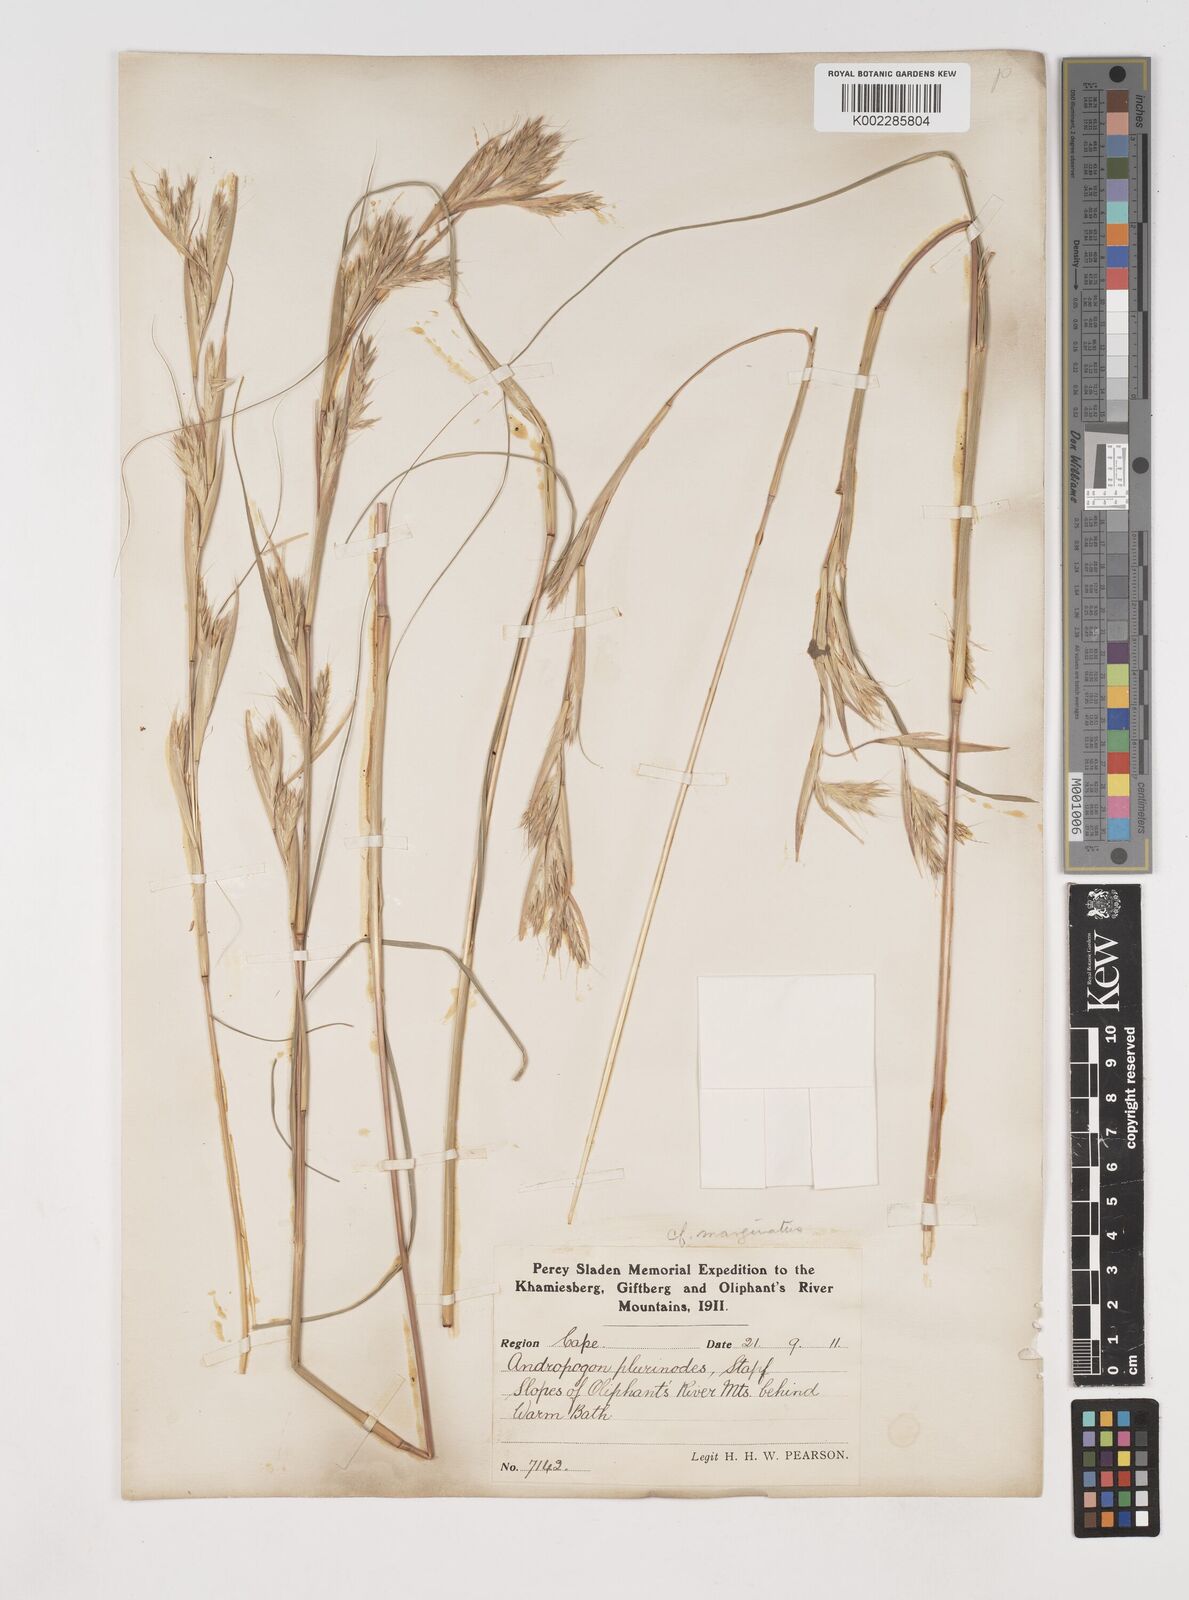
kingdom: Plantae
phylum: Tracheophyta
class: Liliopsida
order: Poales
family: Poaceae
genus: Cymbopogon
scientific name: Cymbopogon nardus
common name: Giant turpentine grass
